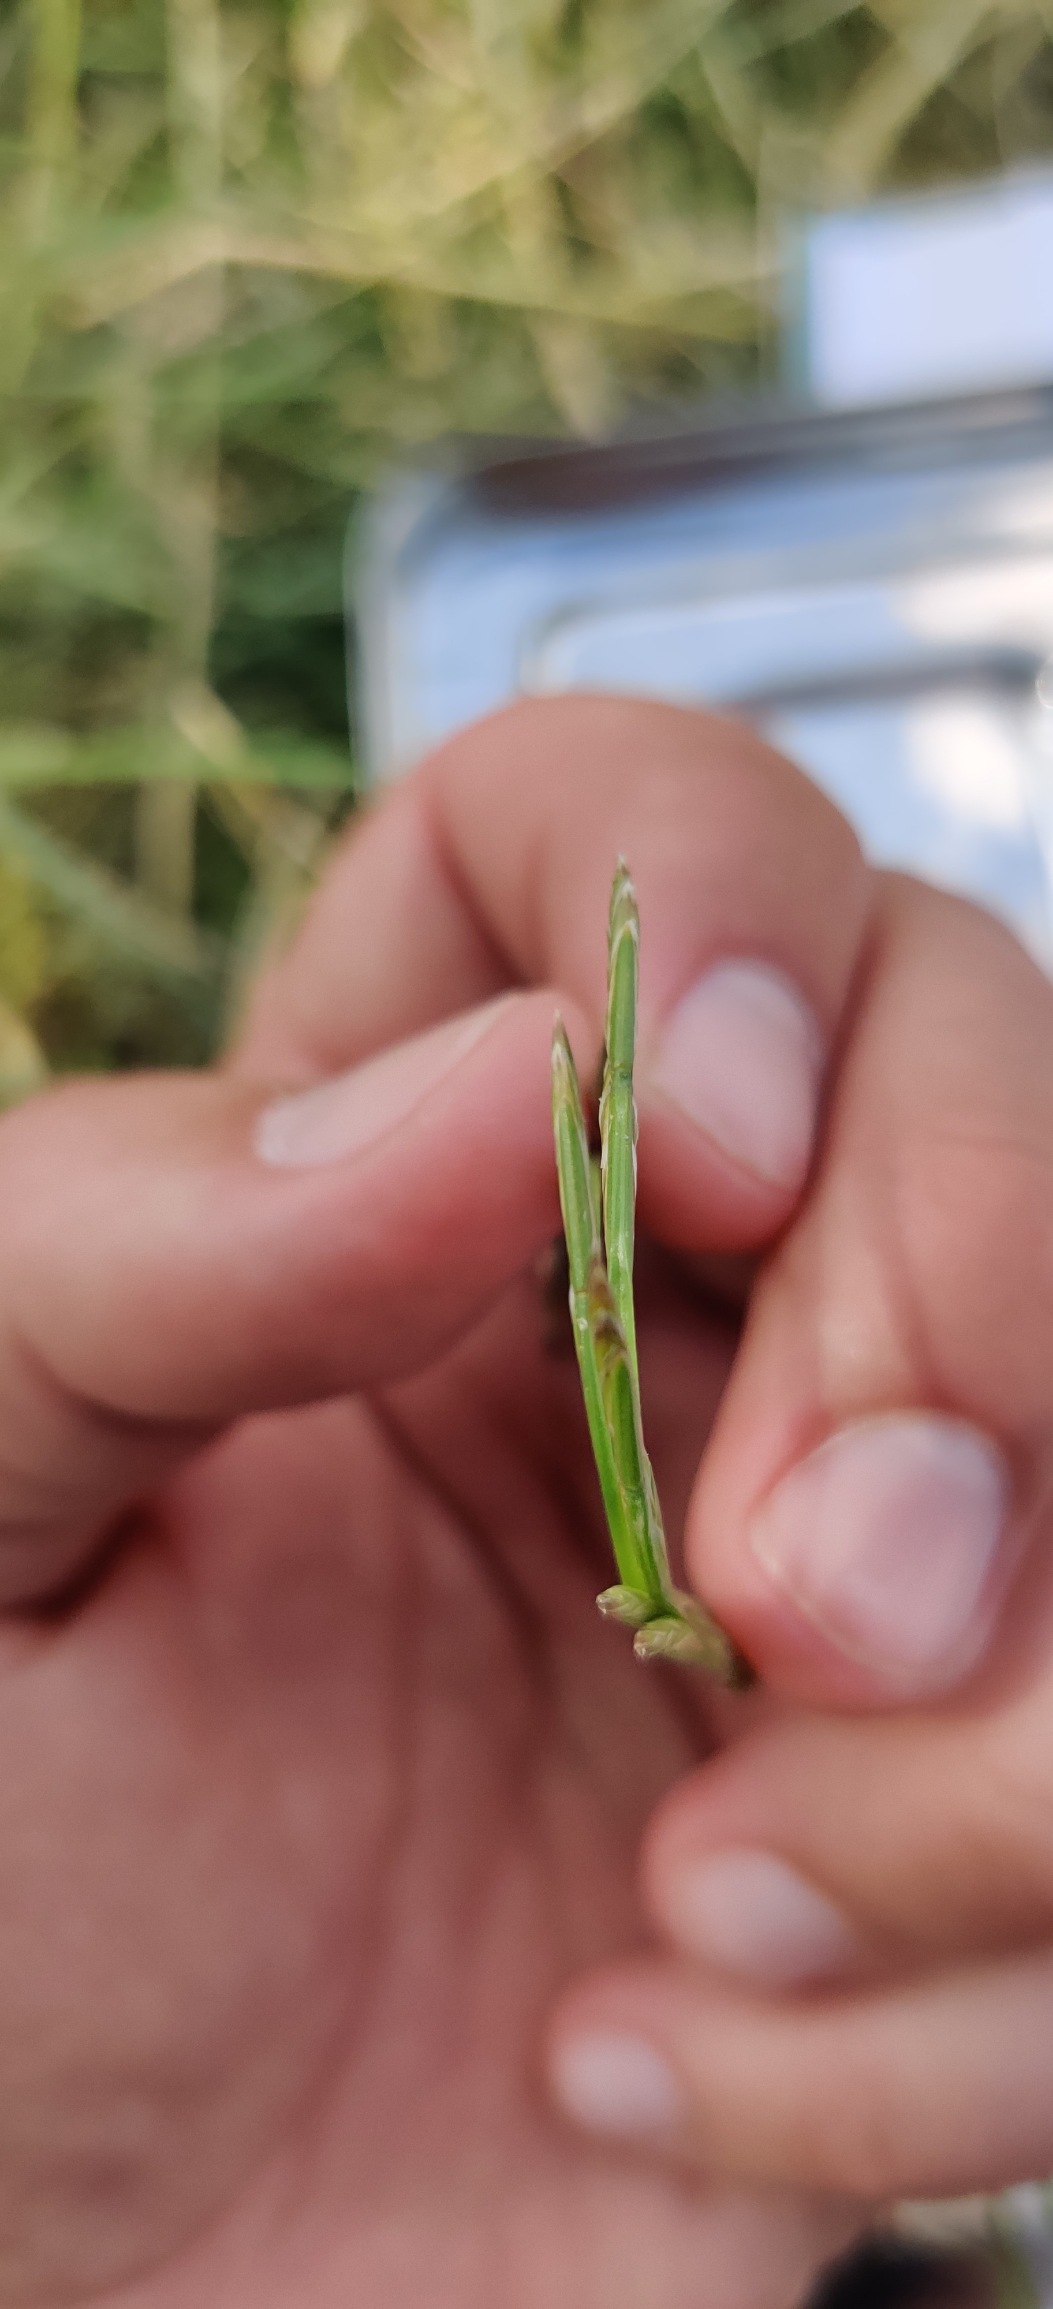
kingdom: Plantae
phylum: Tracheophyta
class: Liliopsida
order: Poales
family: Poaceae
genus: Lolium
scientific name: Lolium perenne
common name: Almindelig rajgræs
